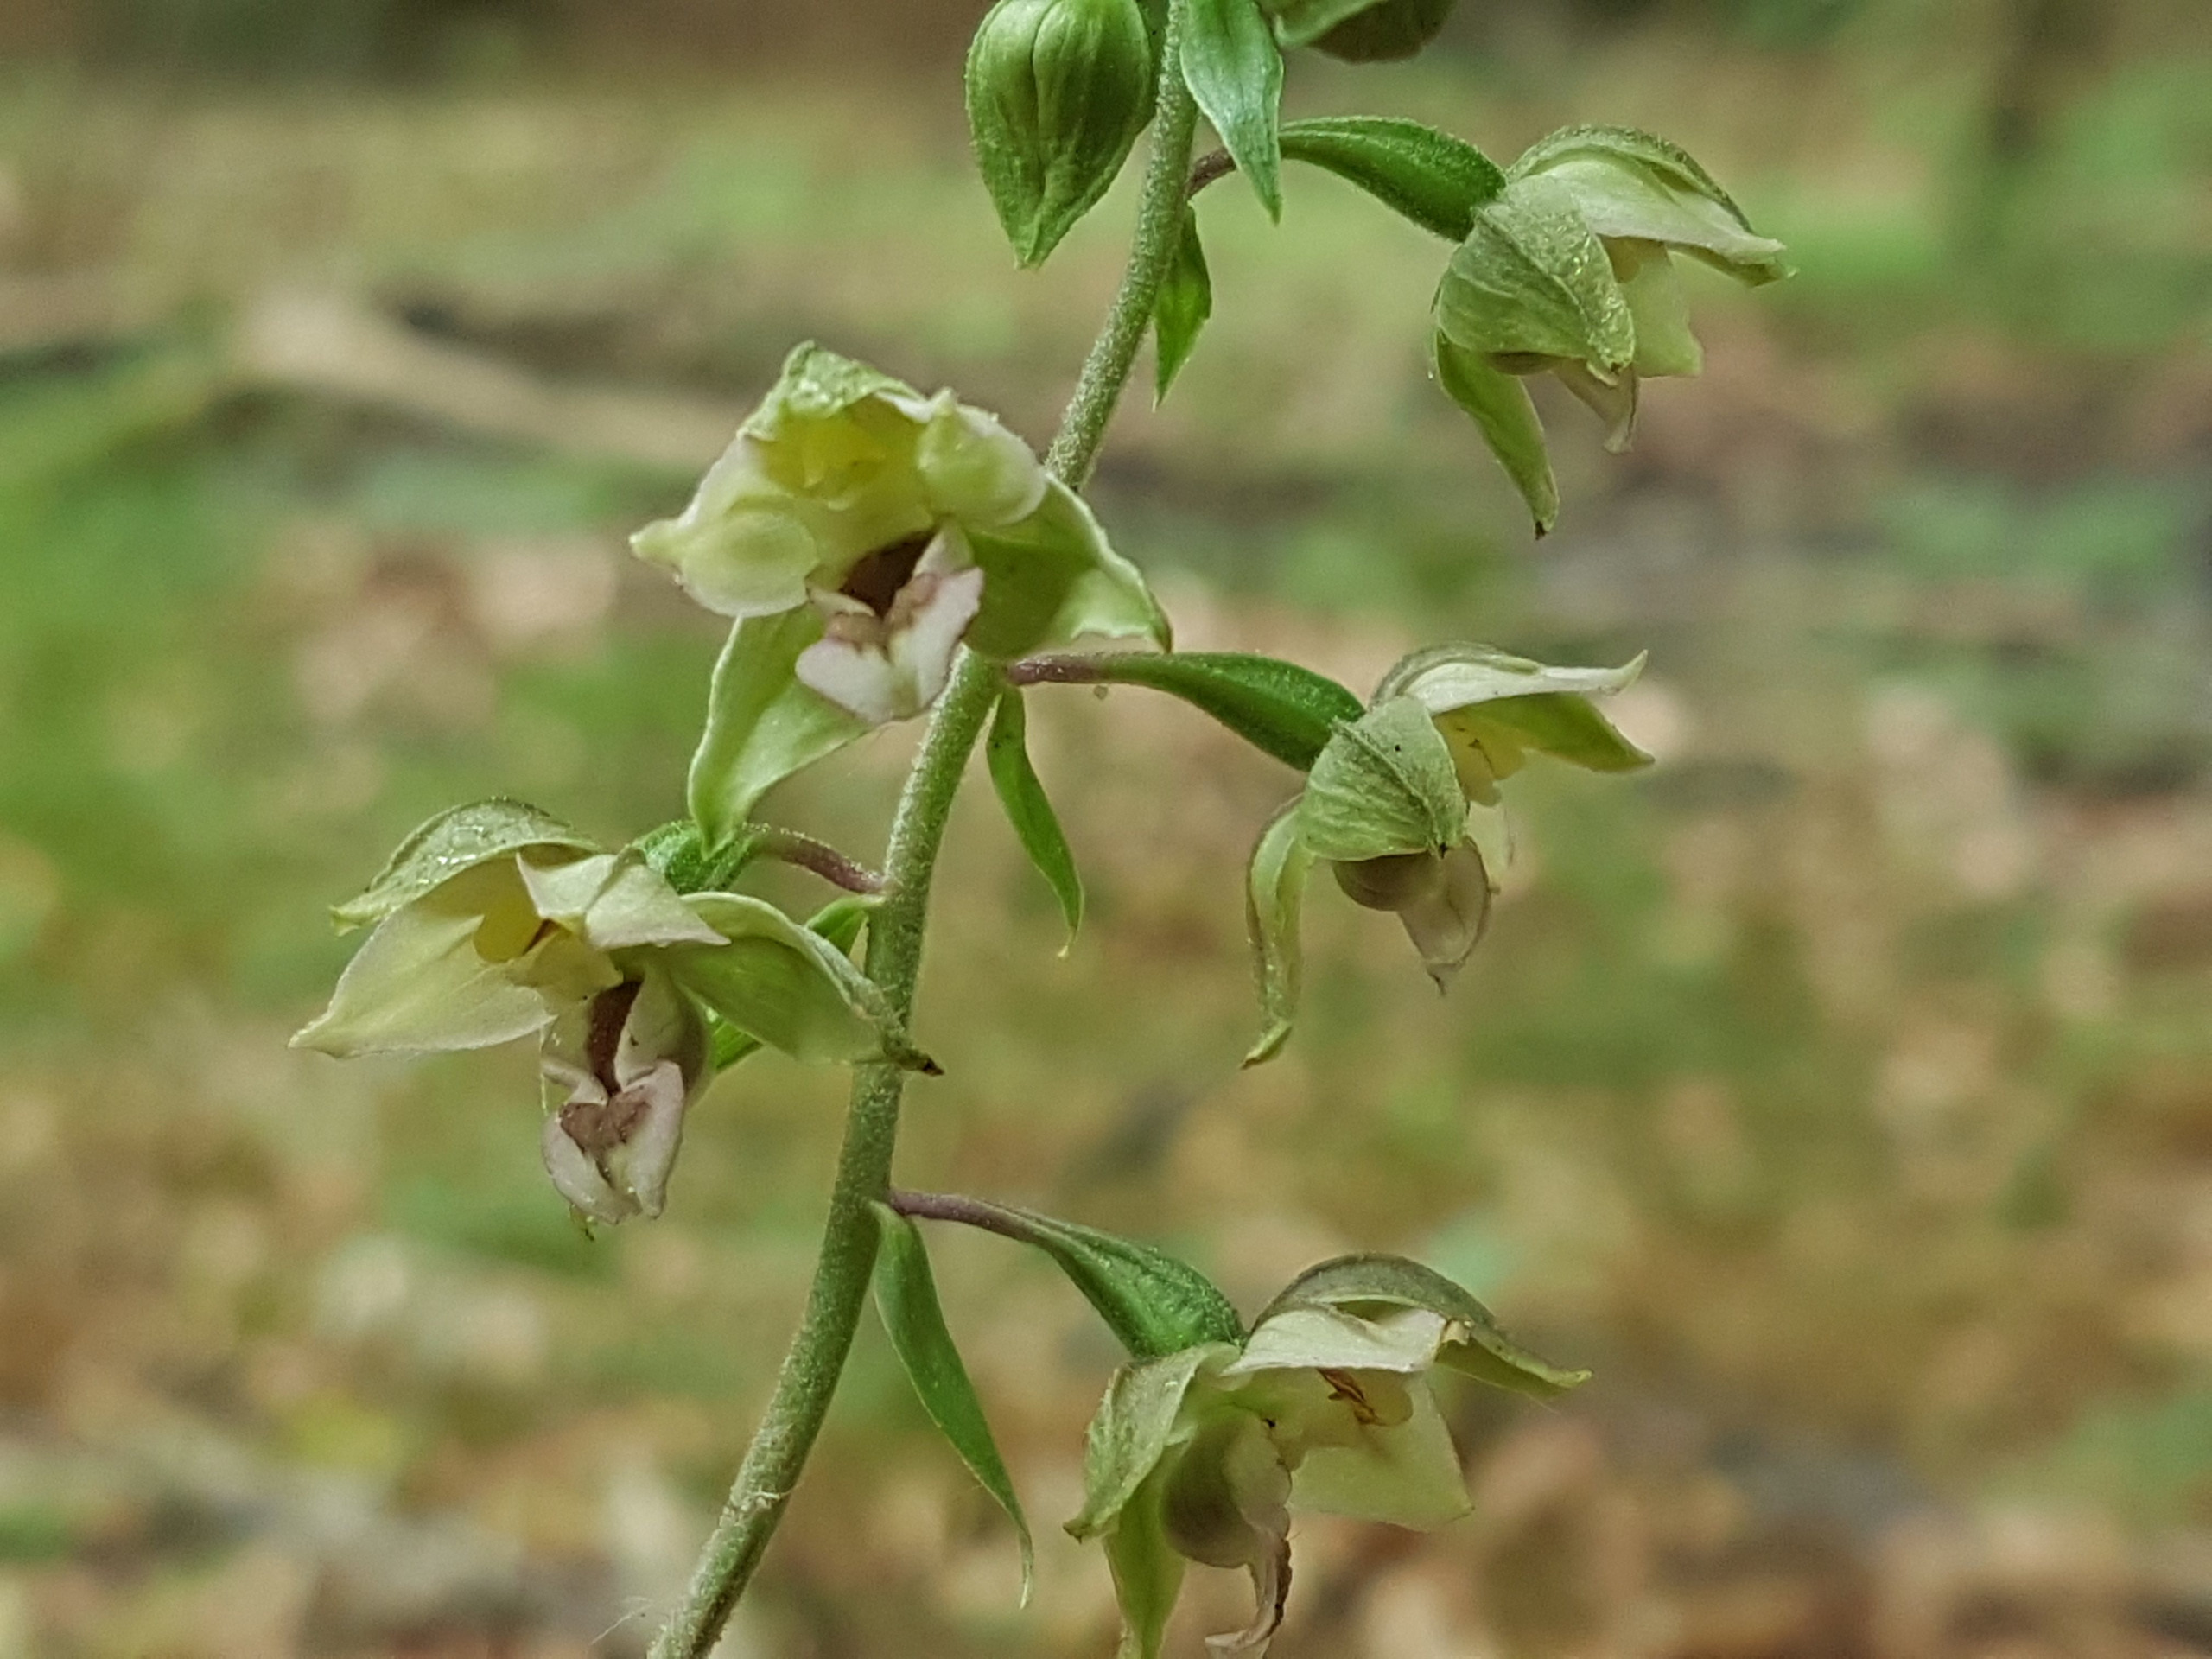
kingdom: Plantae
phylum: Tracheophyta
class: Liliopsida
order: Asparagales
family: Orchidaceae
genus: Epipactis
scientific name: Epipactis leptochila
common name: Storblomstret hullæbe
